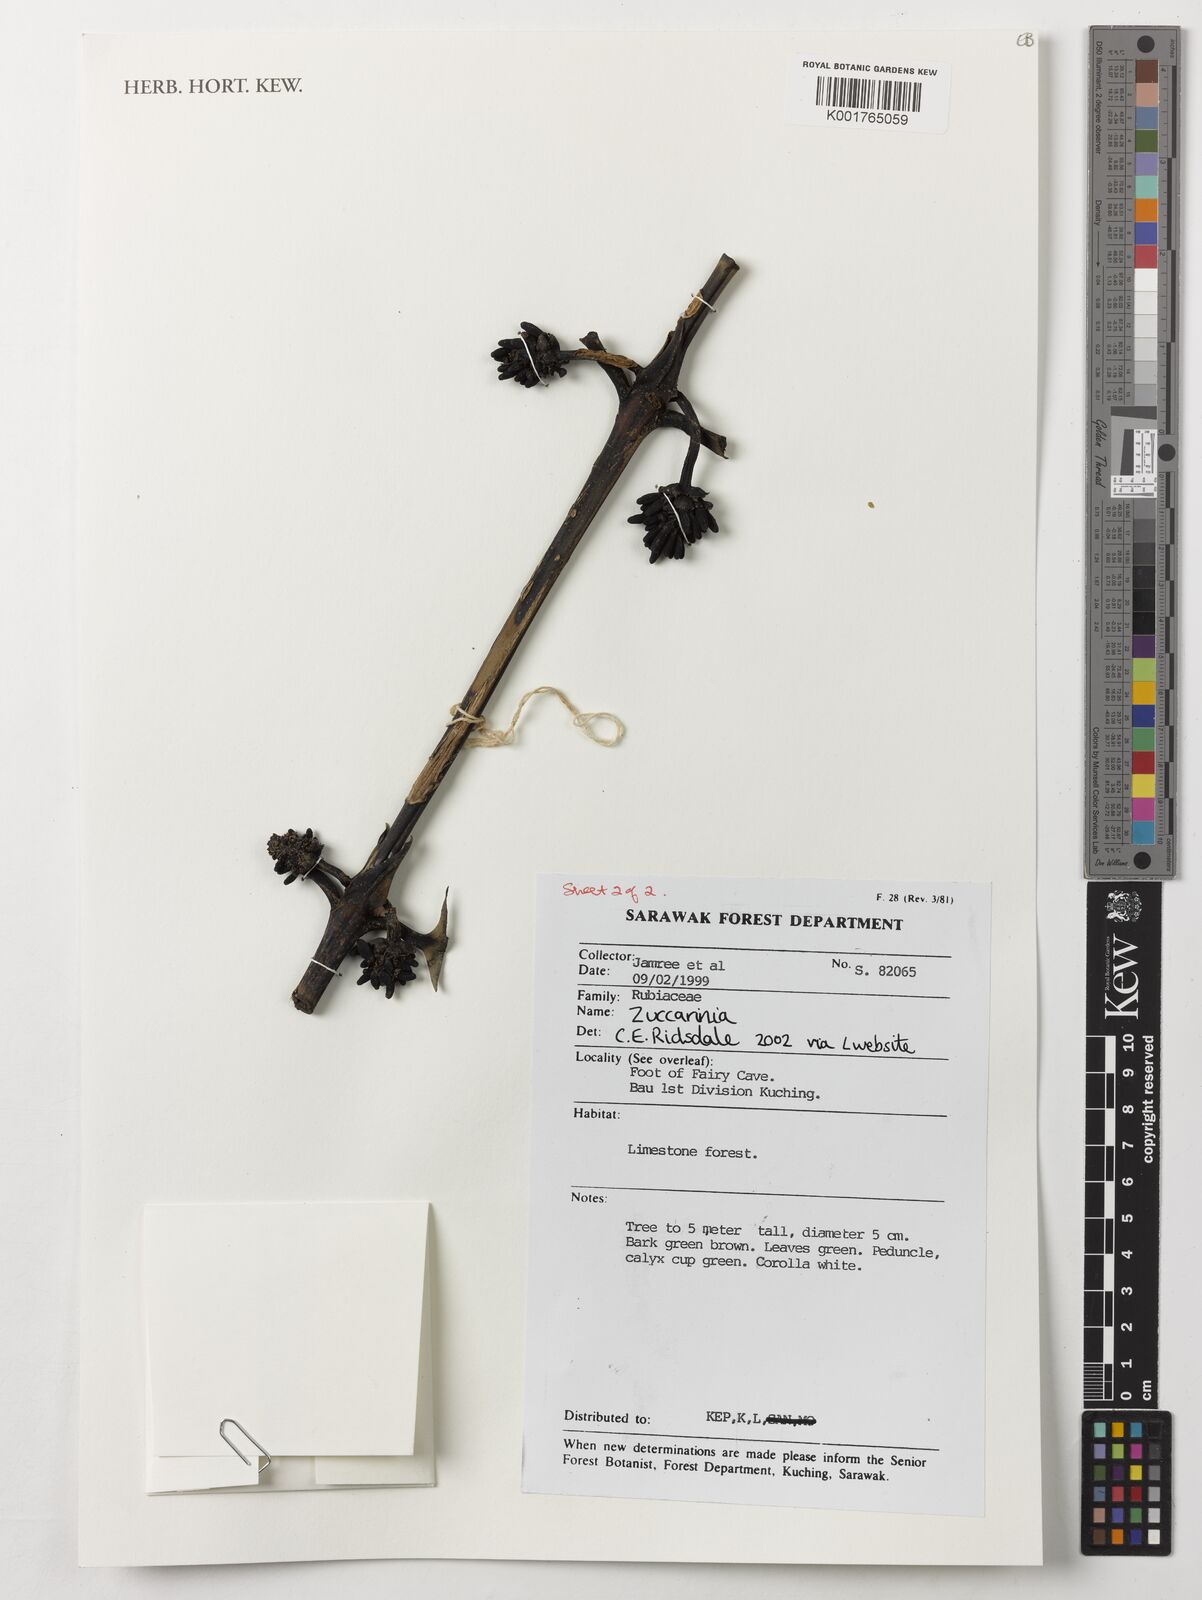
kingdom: Plantae
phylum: Tracheophyta
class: Magnoliopsida
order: Gentianales
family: Rubiaceae
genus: Zuccarinia
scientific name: Zuccarinia
